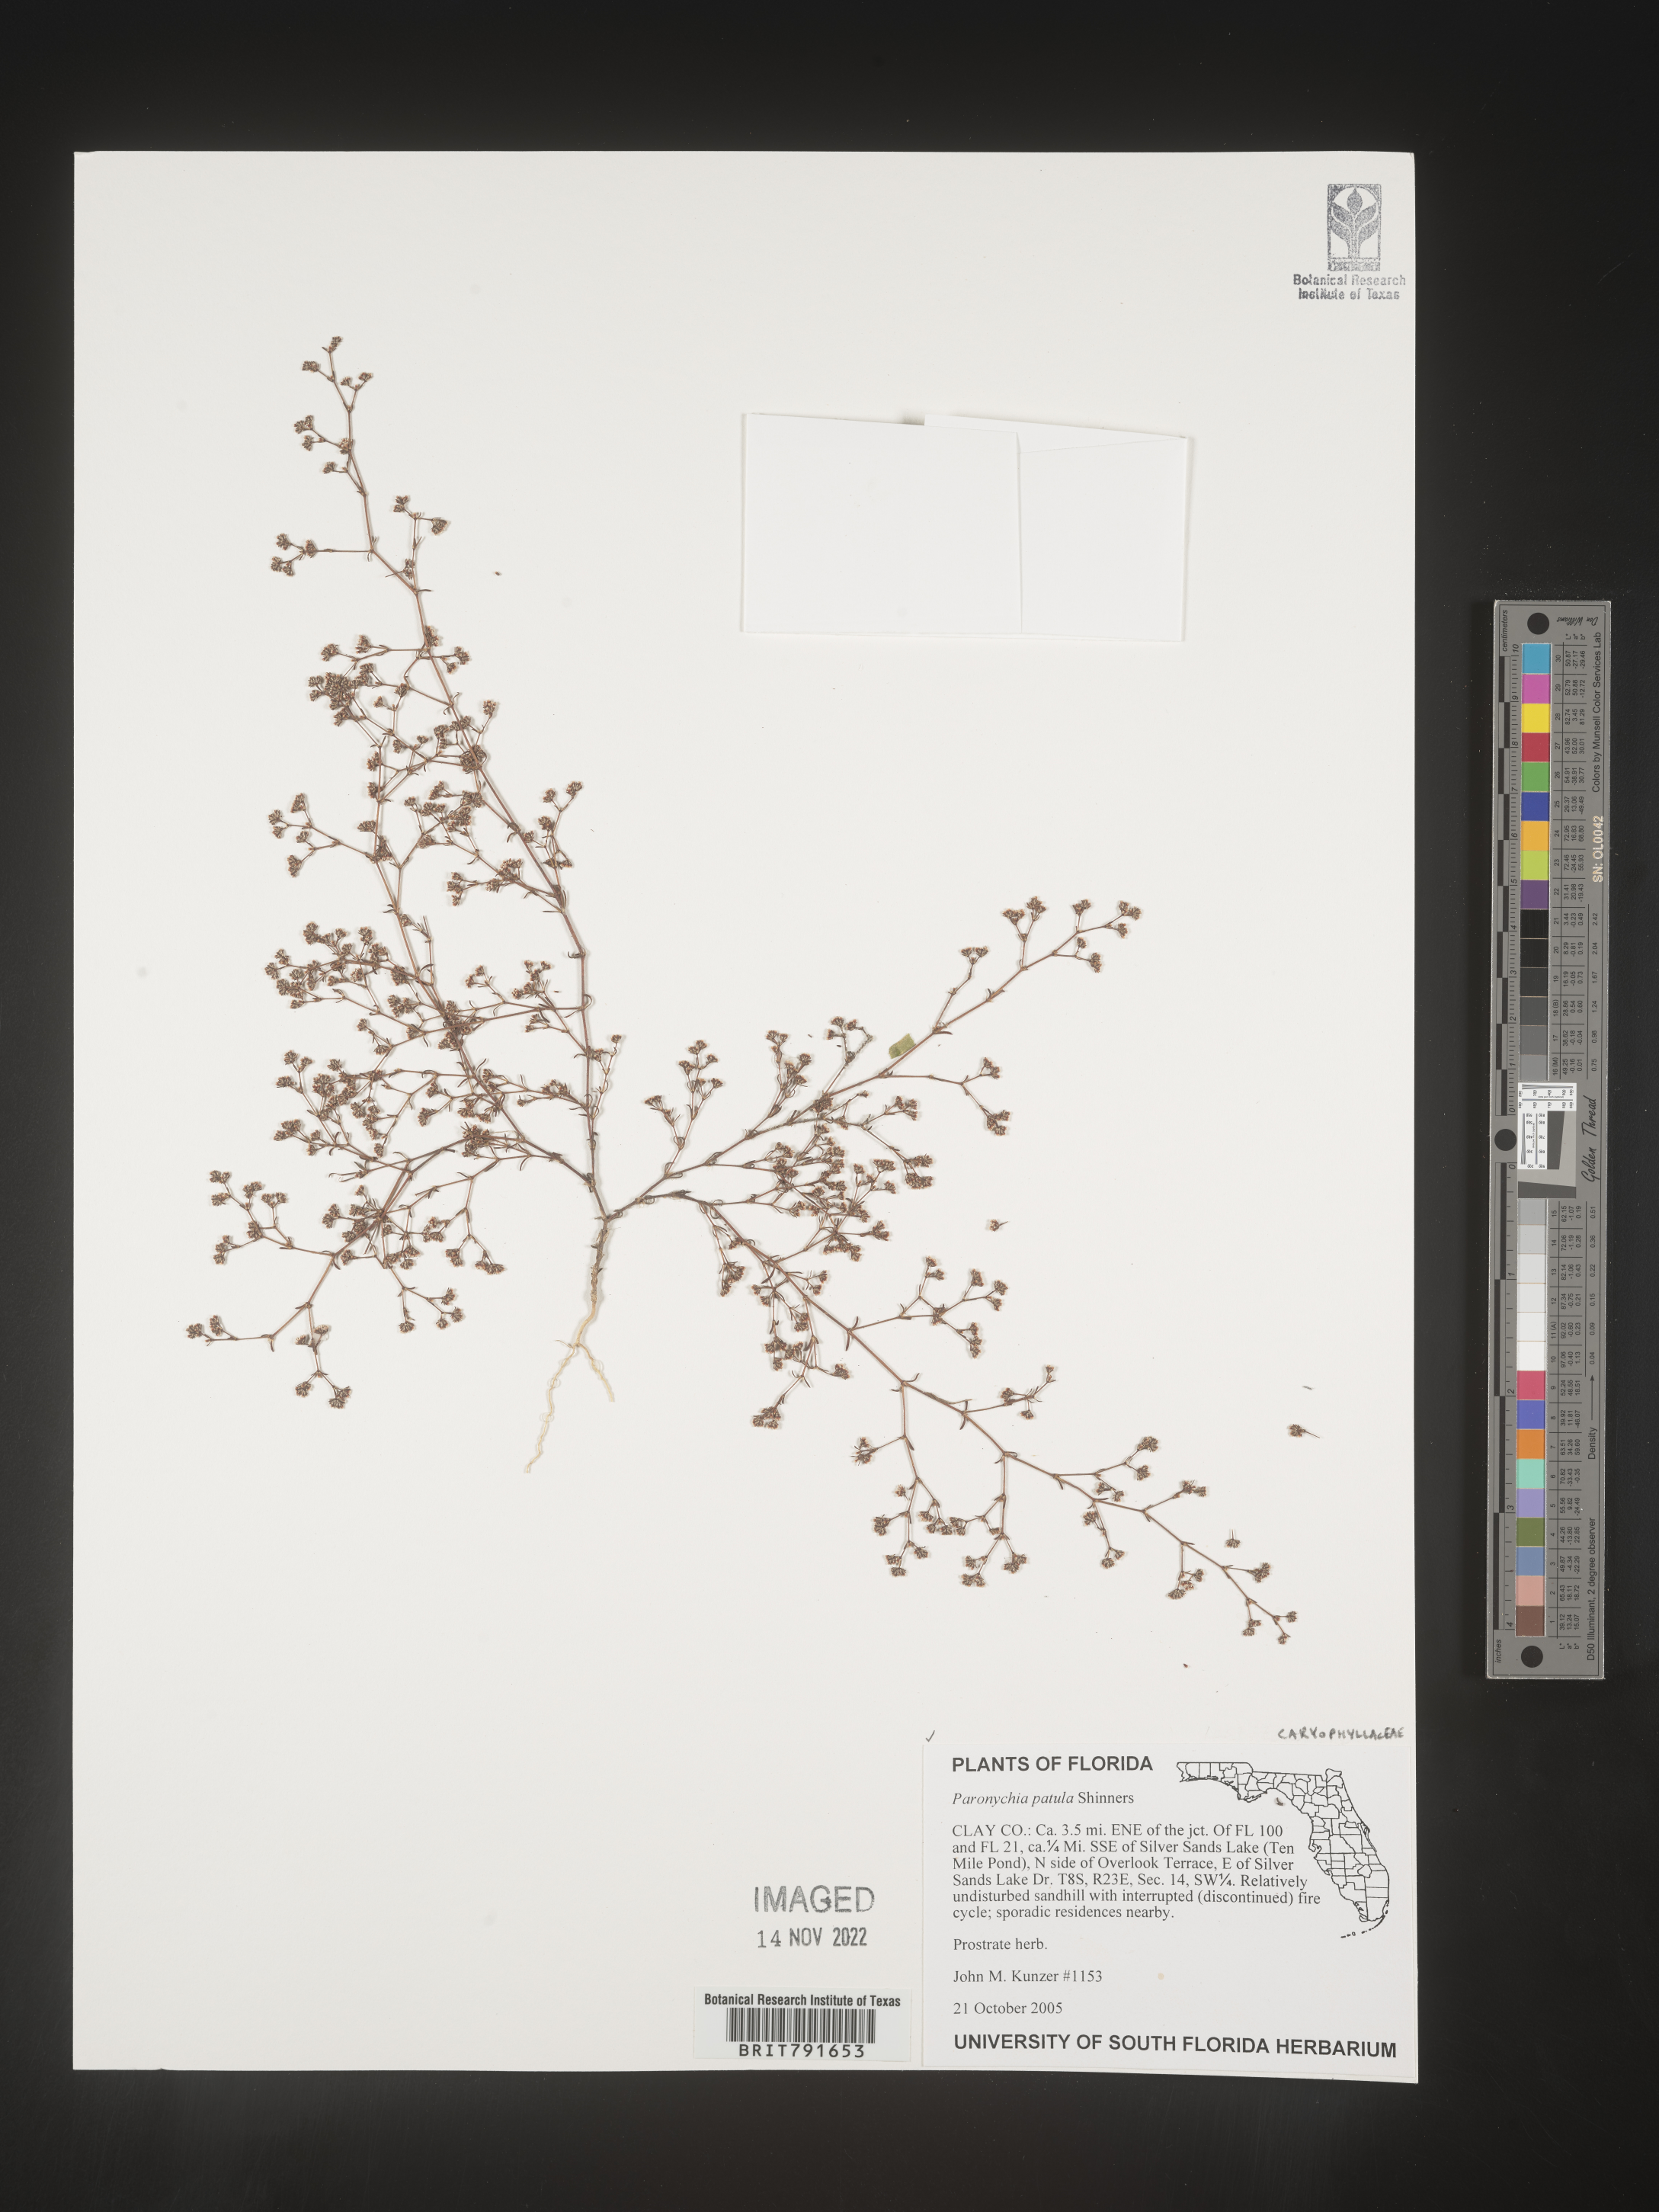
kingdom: Plantae
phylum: Tracheophyta
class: Magnoliopsida
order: Caryophyllales
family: Caryophyllaceae
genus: Paronychia
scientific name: Paronychia patula
